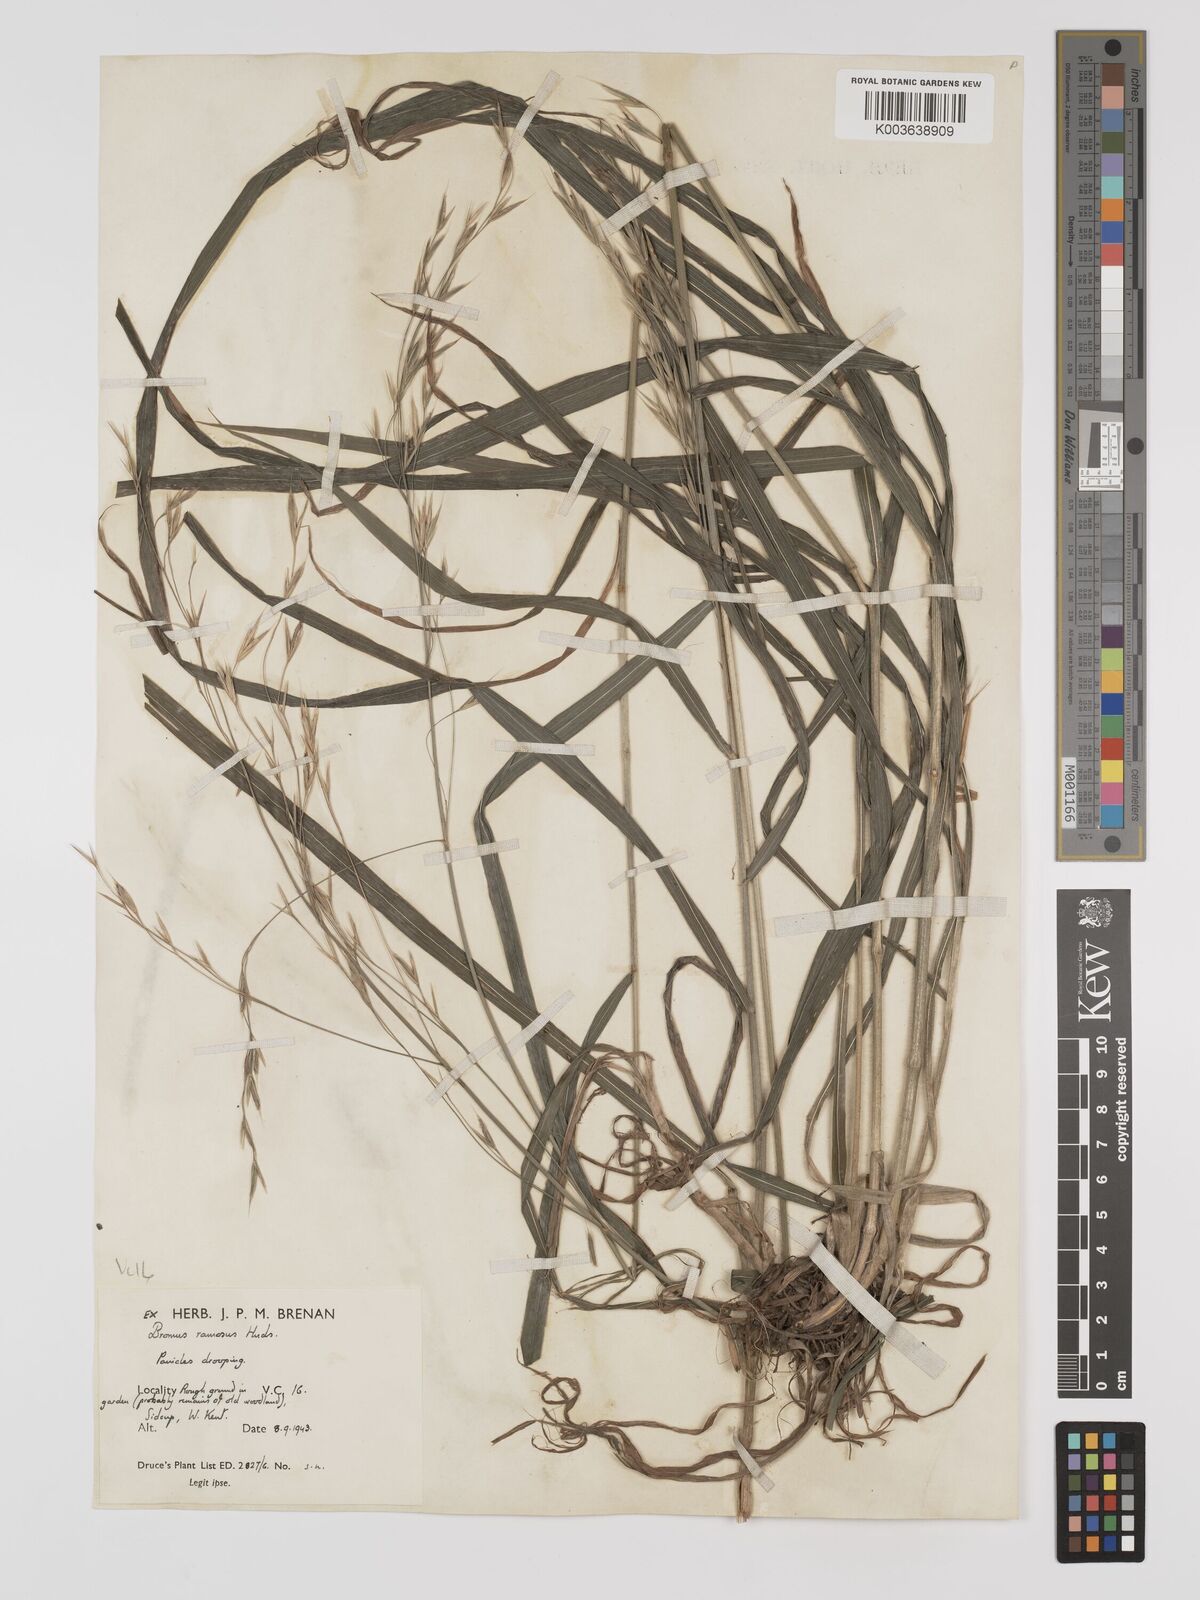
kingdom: Plantae
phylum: Tracheophyta
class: Liliopsida
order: Poales
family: Poaceae
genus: Bromus
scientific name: Bromus ramosus
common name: Hairy brome
